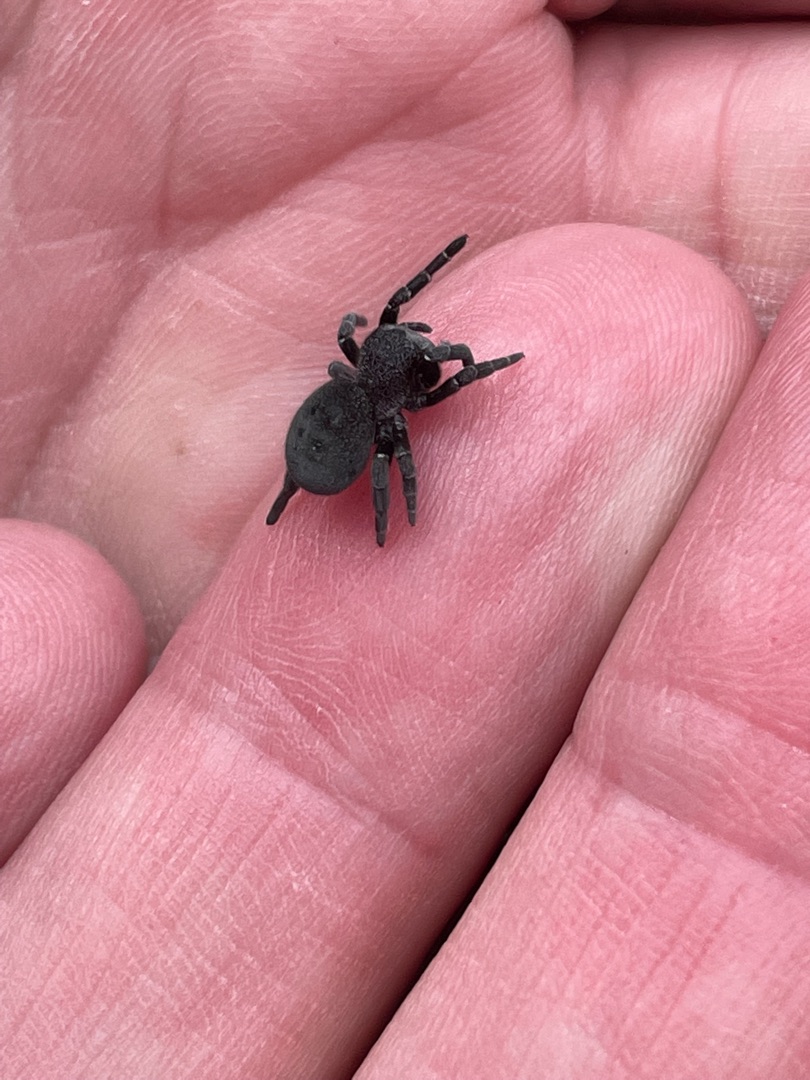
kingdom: Animalia
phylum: Arthropoda
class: Arachnida
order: Araneae
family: Eresidae
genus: Eresus
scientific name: Eresus sandaliatus
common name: Mariehøneedderkop
